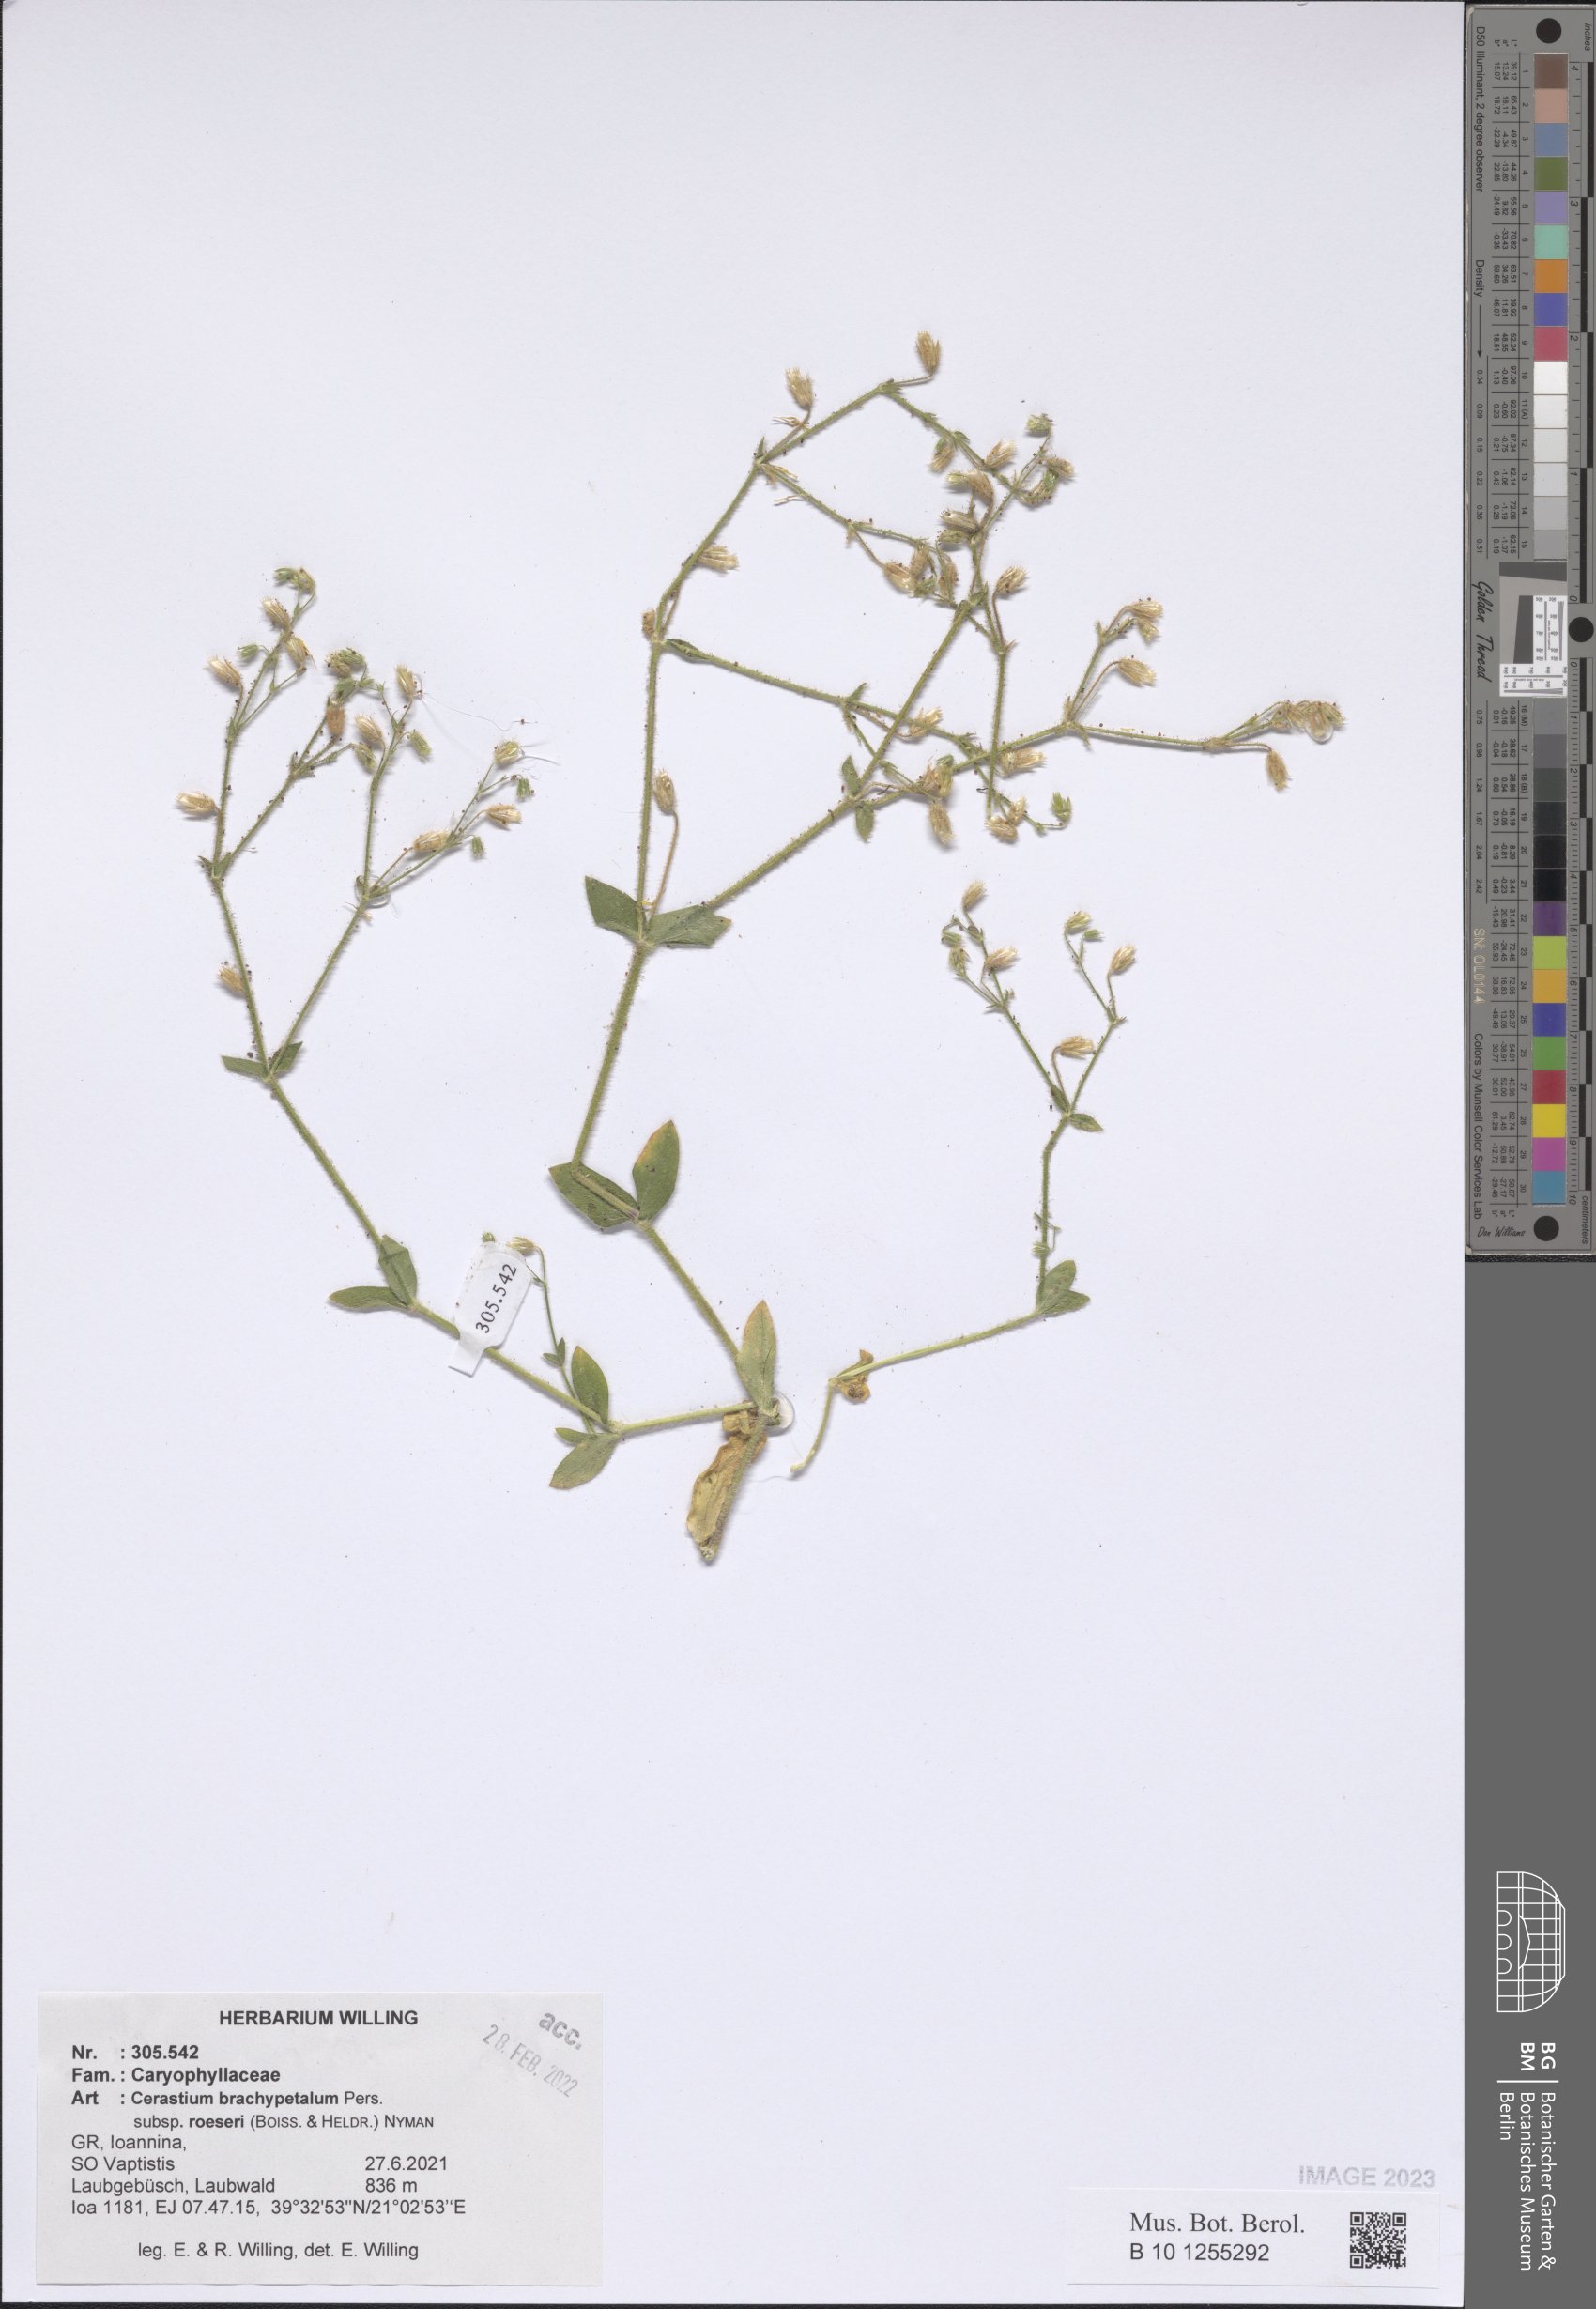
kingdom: Plantae
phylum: Tracheophyta
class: Magnoliopsida
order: Caryophyllales
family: Caryophyllaceae
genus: Cerastium
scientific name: Cerastium brachypetalum
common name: Grey mouse-ear
